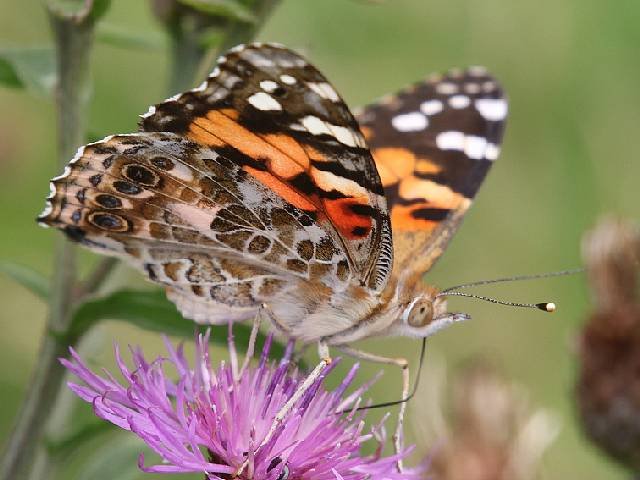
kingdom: Animalia
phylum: Arthropoda
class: Insecta
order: Lepidoptera
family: Nymphalidae
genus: Vanessa
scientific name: Vanessa cardui
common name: Painted Lady
